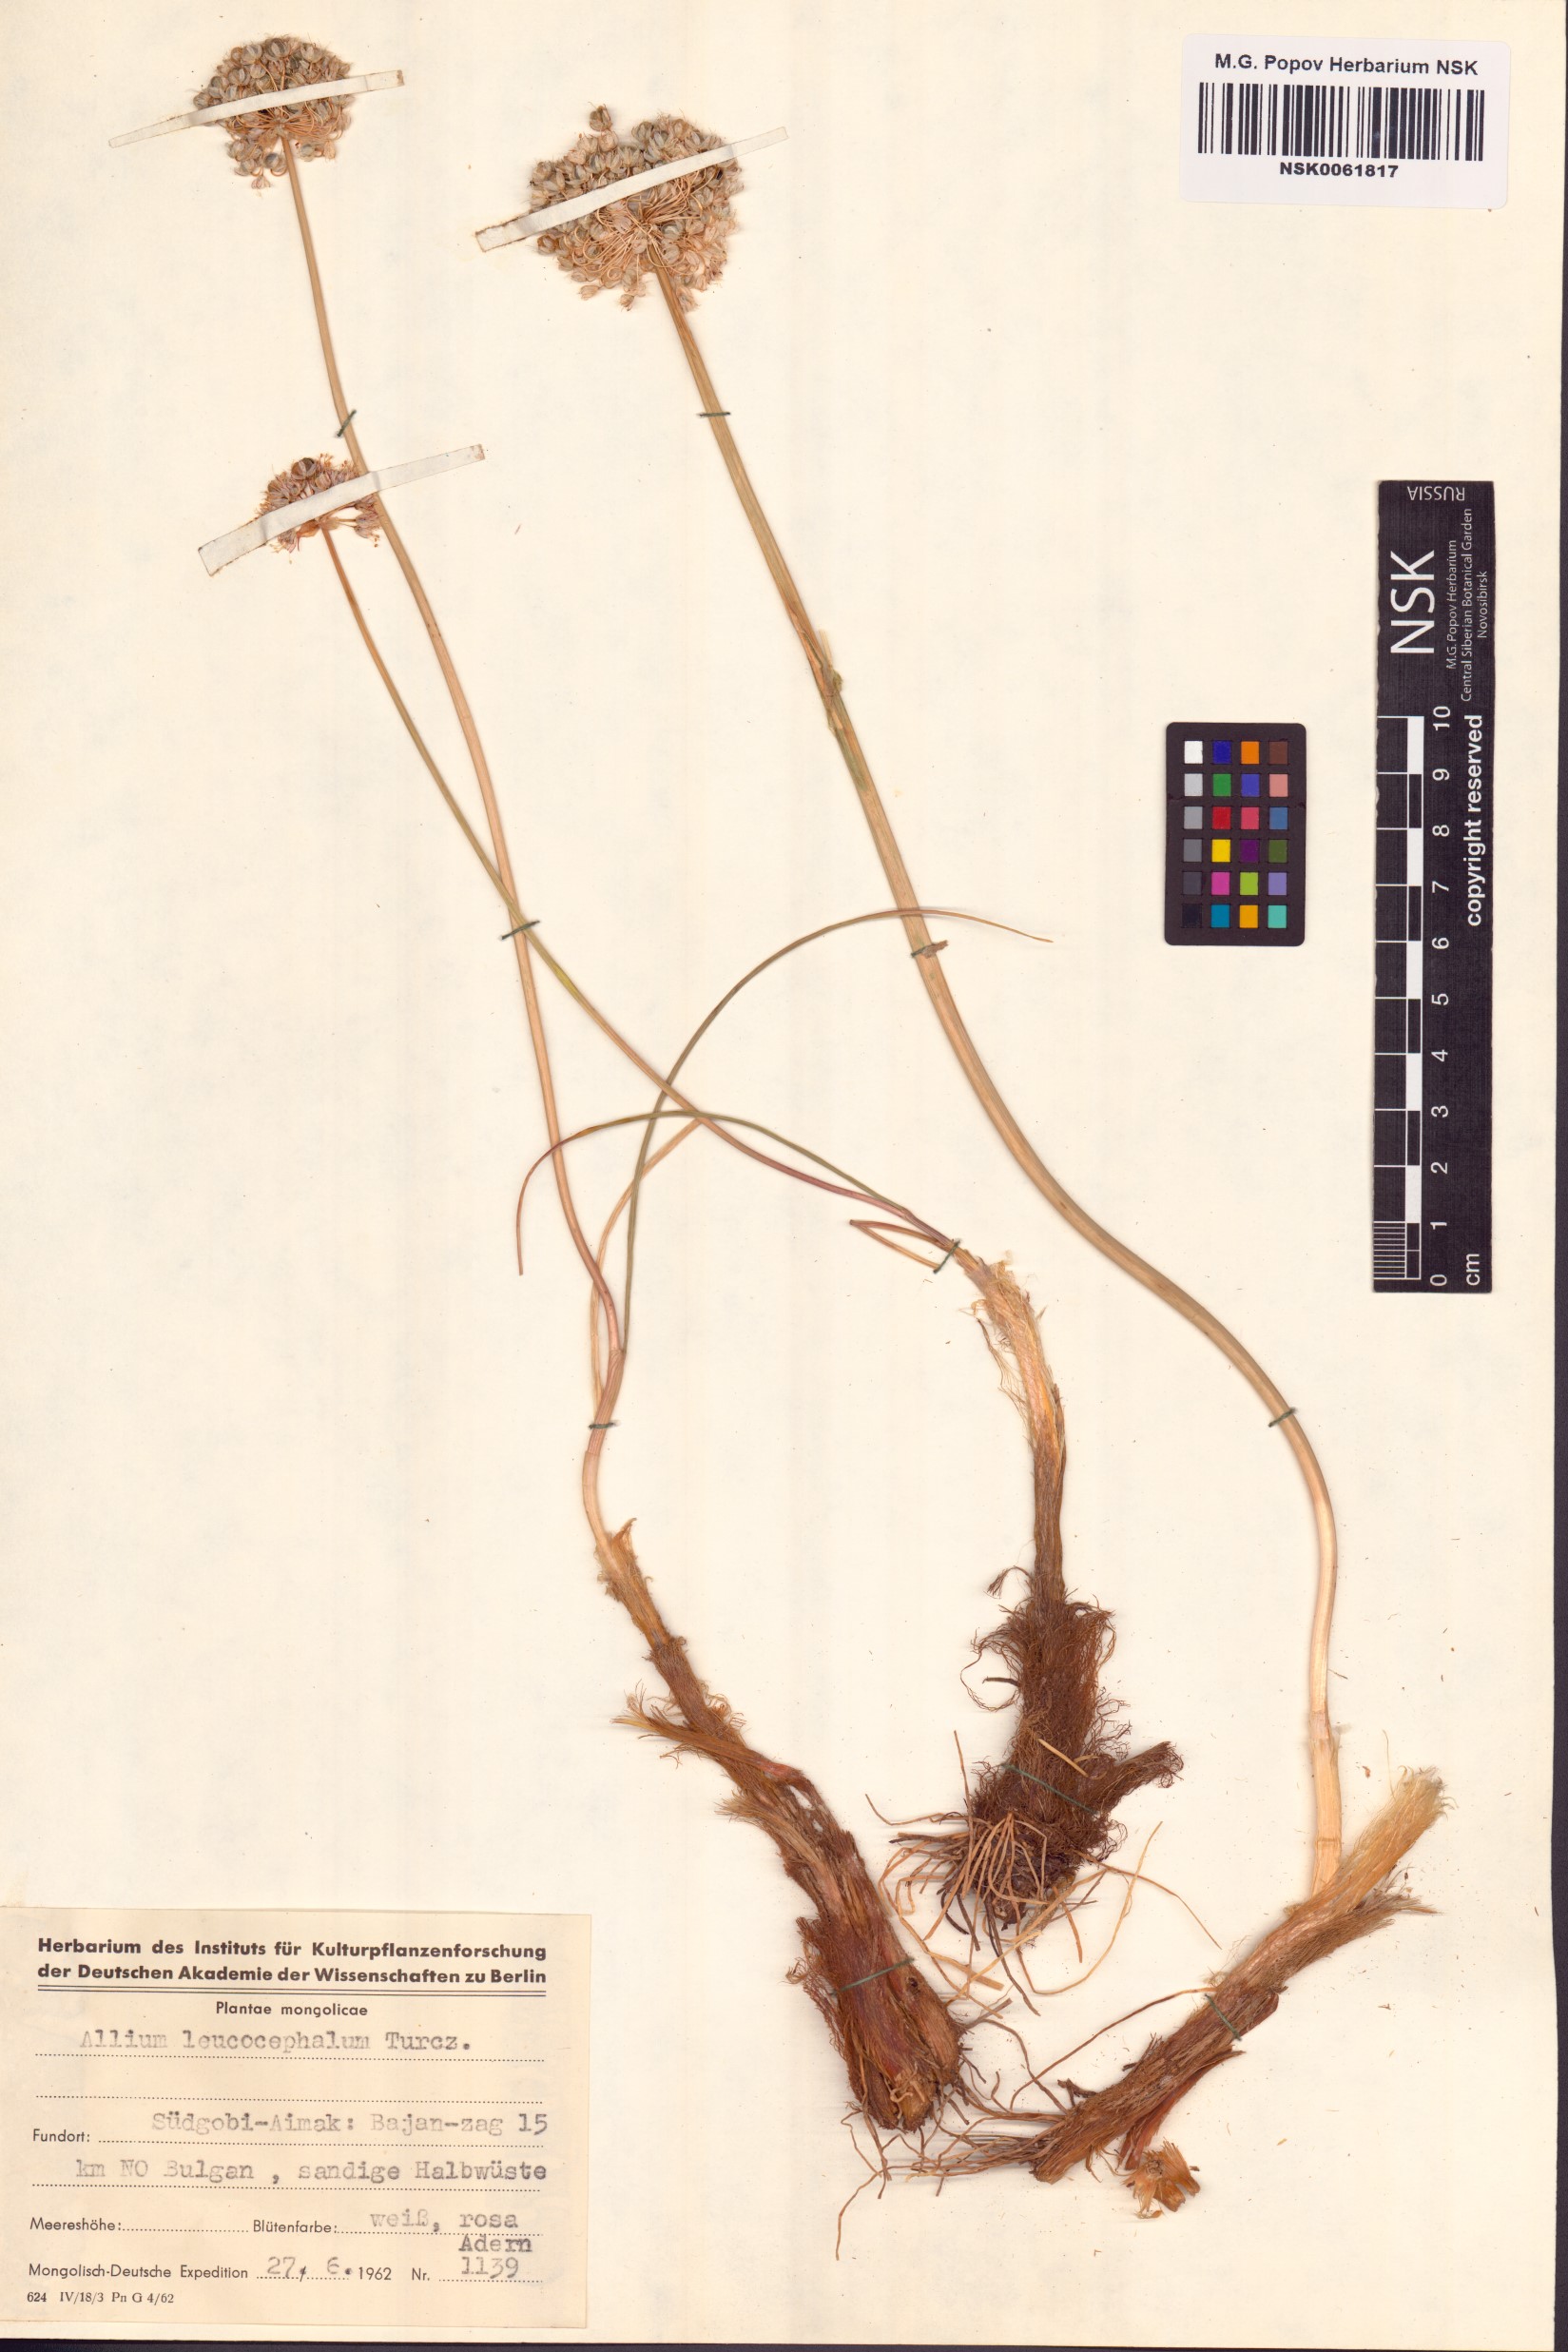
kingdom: Plantae
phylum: Tracheophyta
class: Liliopsida
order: Asparagales
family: Amaryllidaceae
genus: Allium
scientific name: Allium leucocephalum
